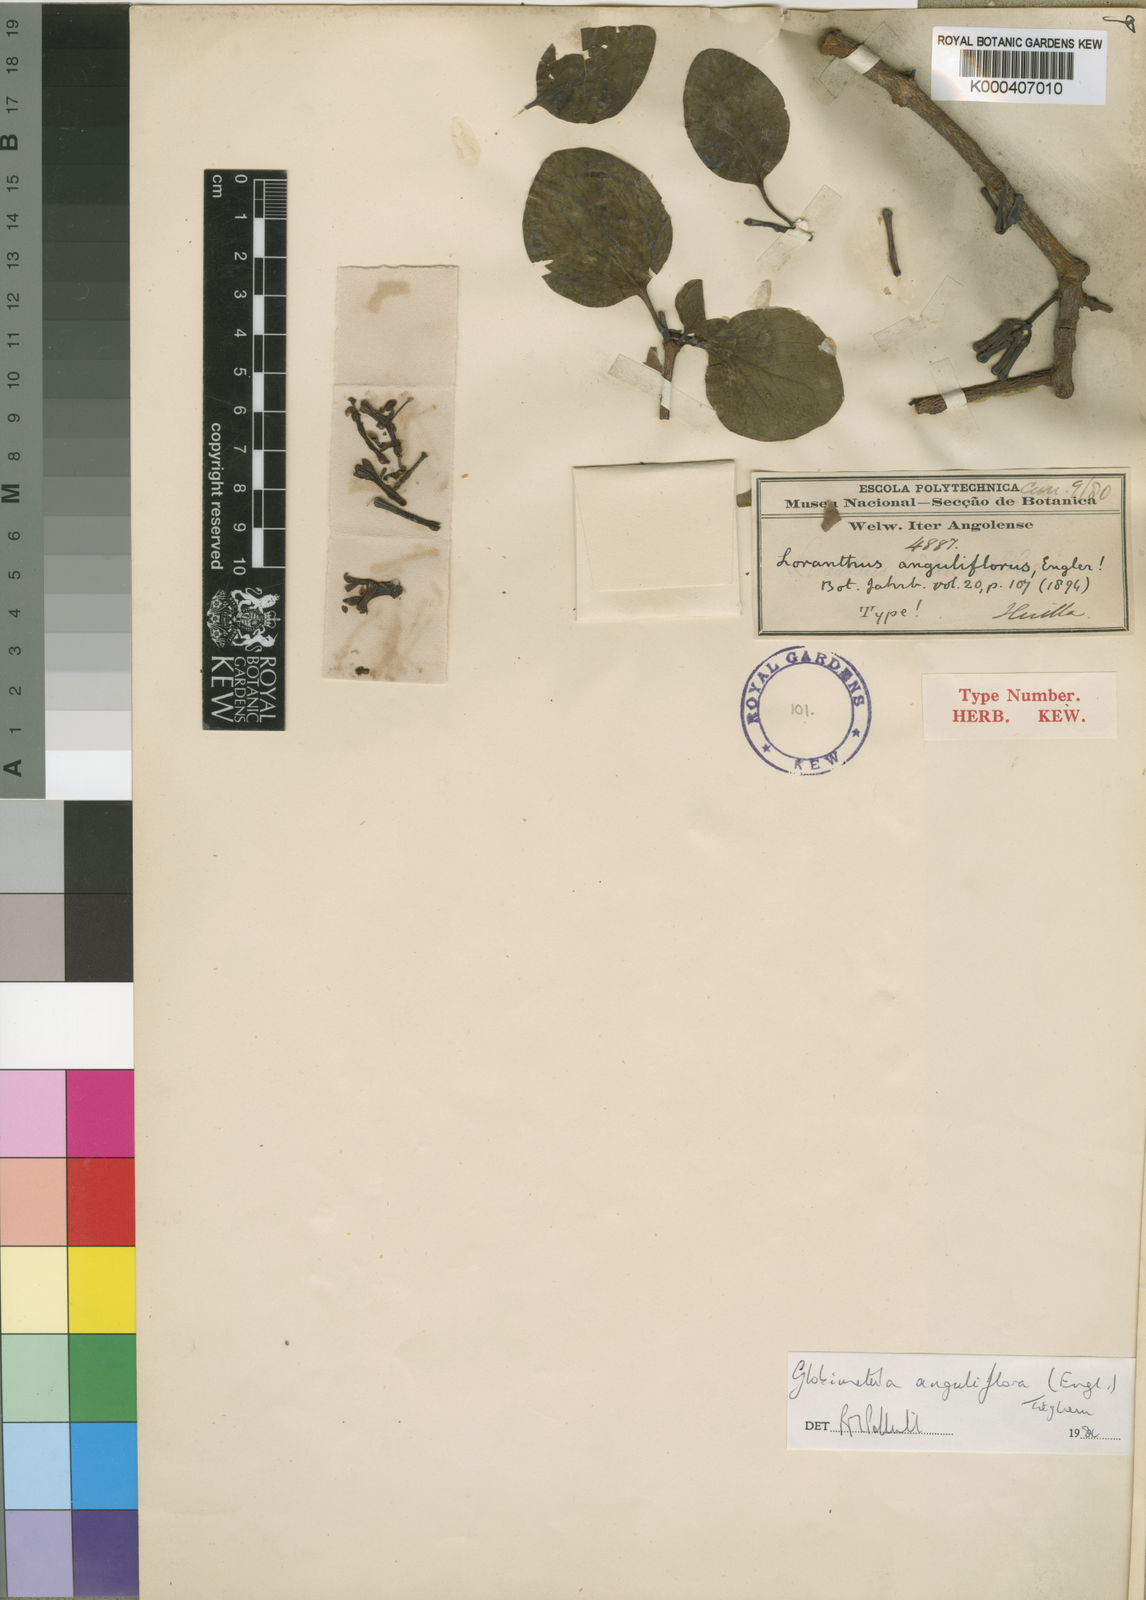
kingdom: Plantae
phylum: Tracheophyta
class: Magnoliopsida
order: Santalales
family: Loranthaceae
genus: Globimetula
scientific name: Globimetula anguliflora
